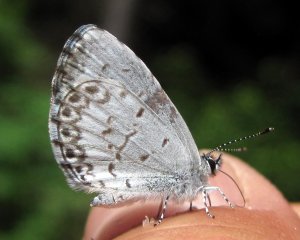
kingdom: Animalia
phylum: Arthropoda
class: Insecta
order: Lepidoptera
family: Lycaenidae
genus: Cyaniris
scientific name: Cyaniris neglecta
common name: Summer Azure
